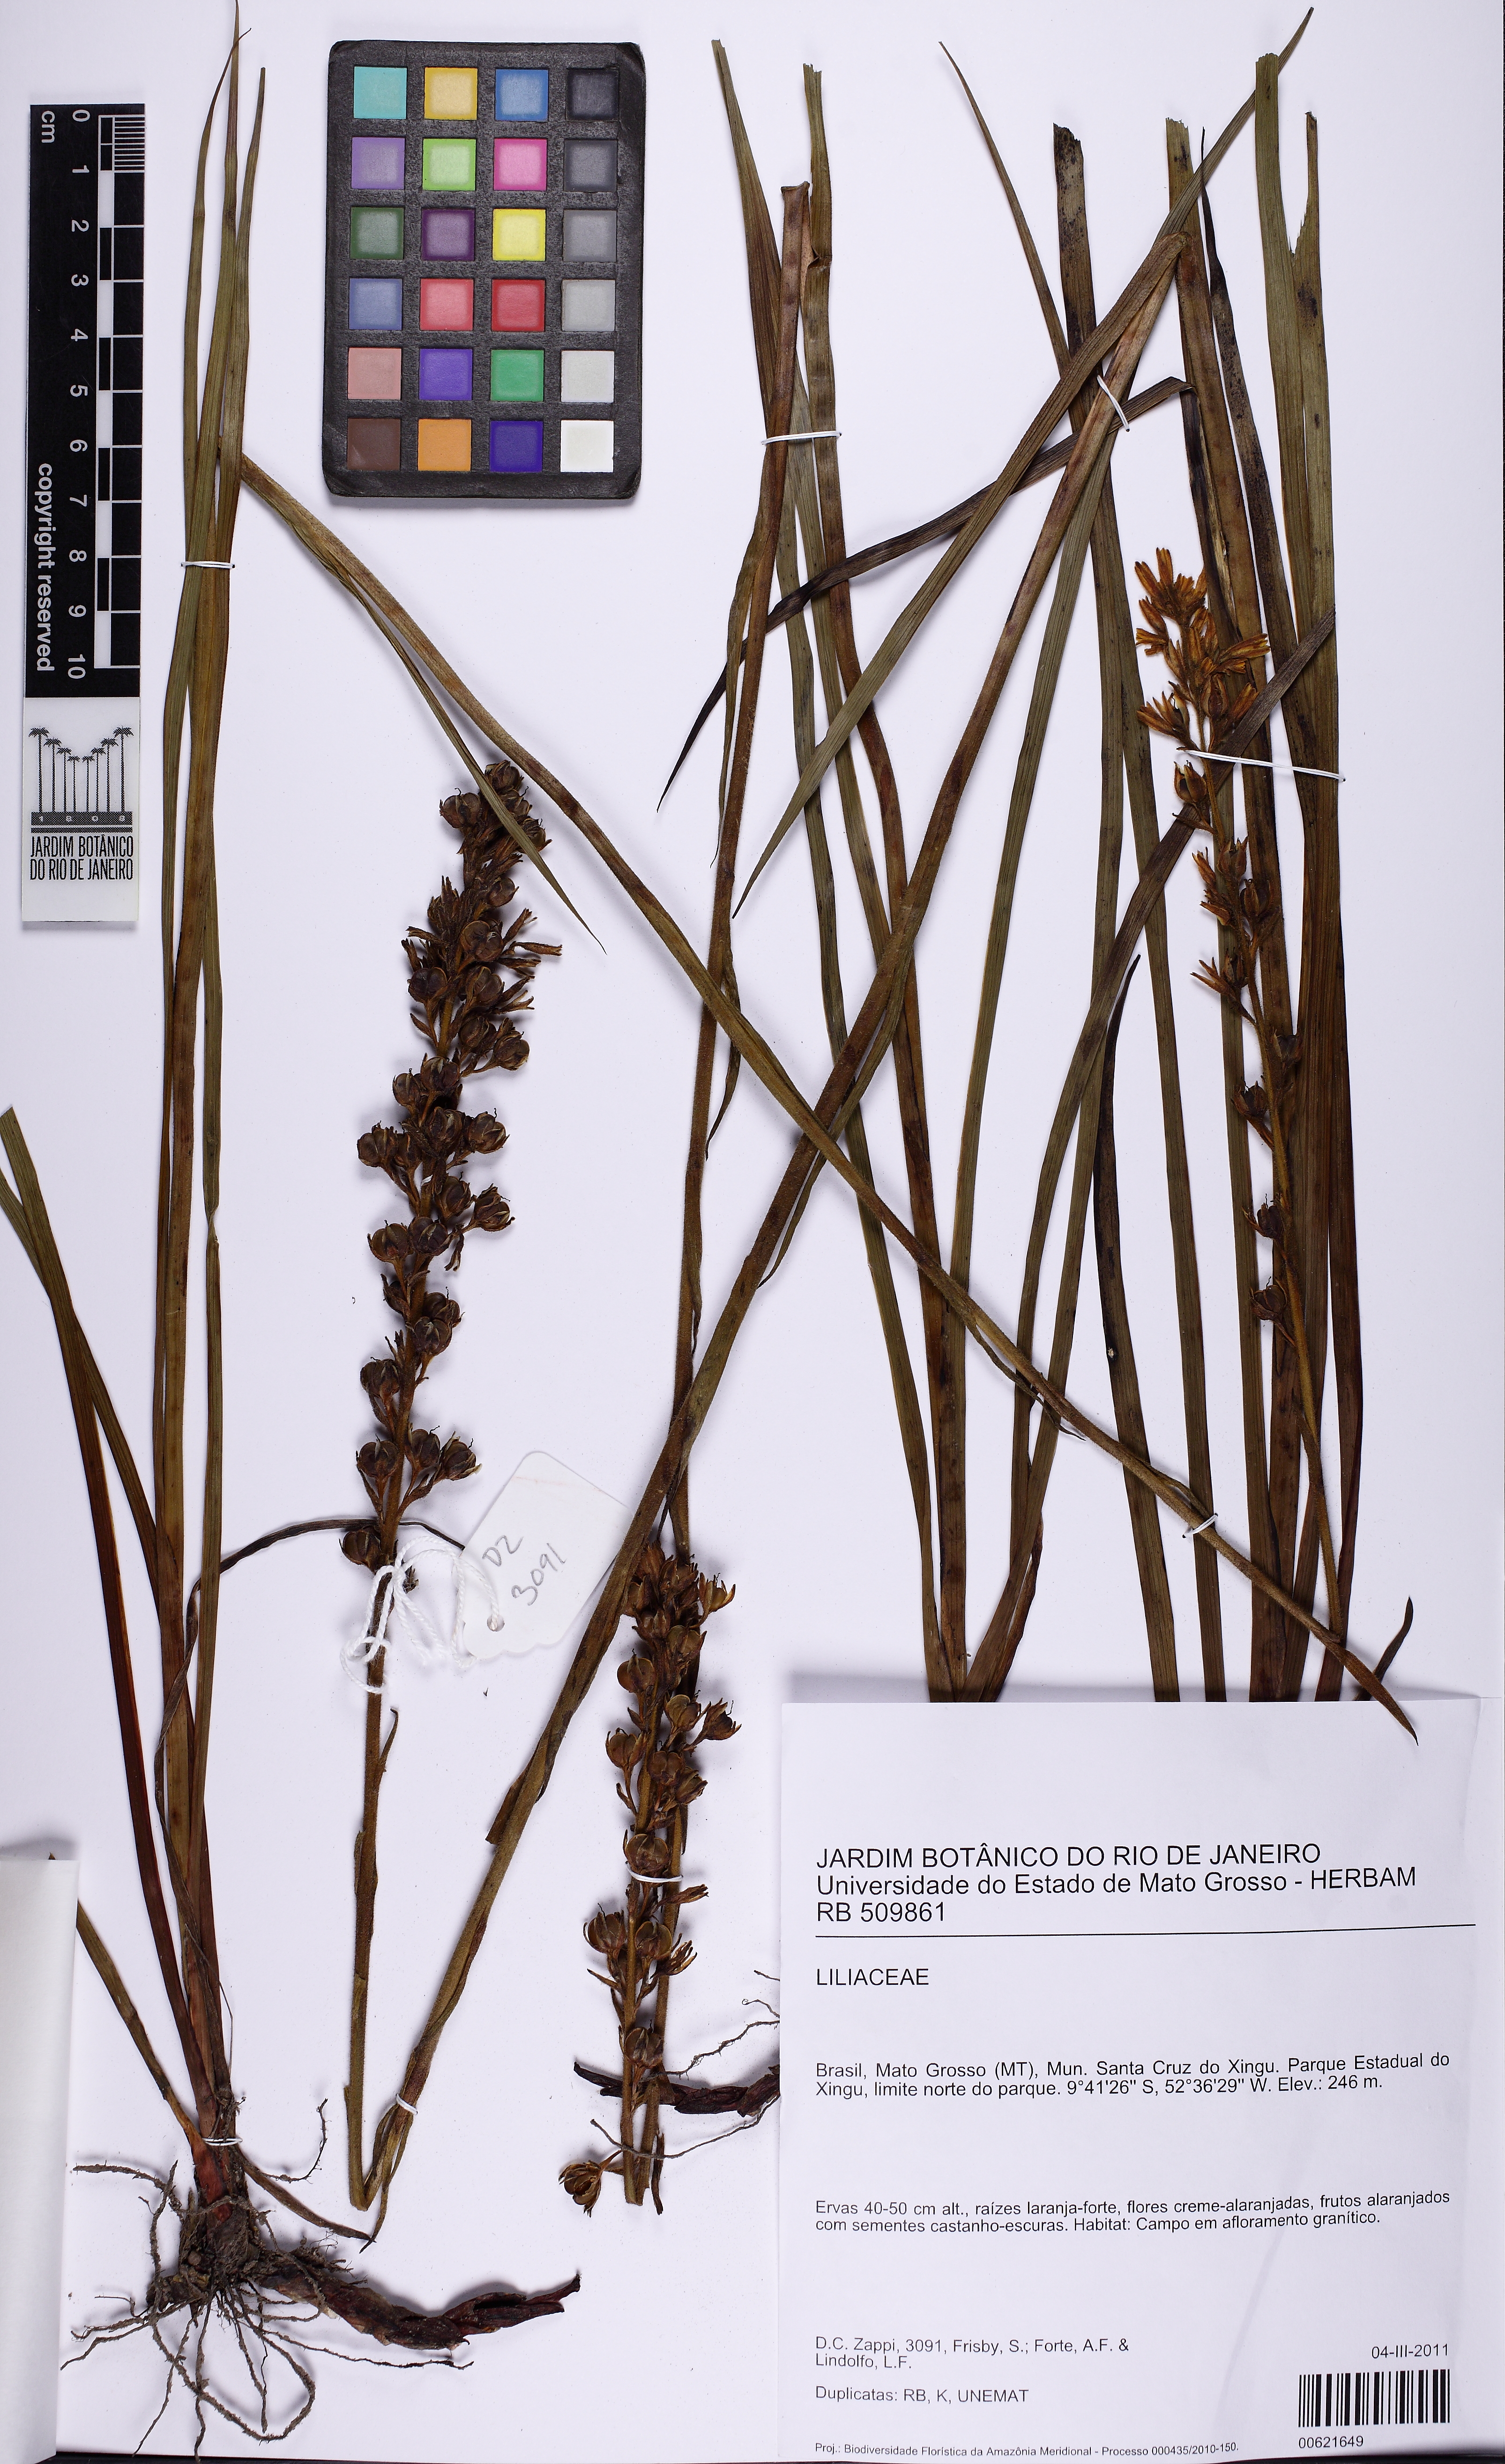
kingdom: Plantae
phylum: Tracheophyta
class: Liliopsida
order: Liliales
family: Liliaceae
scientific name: Liliaceae
